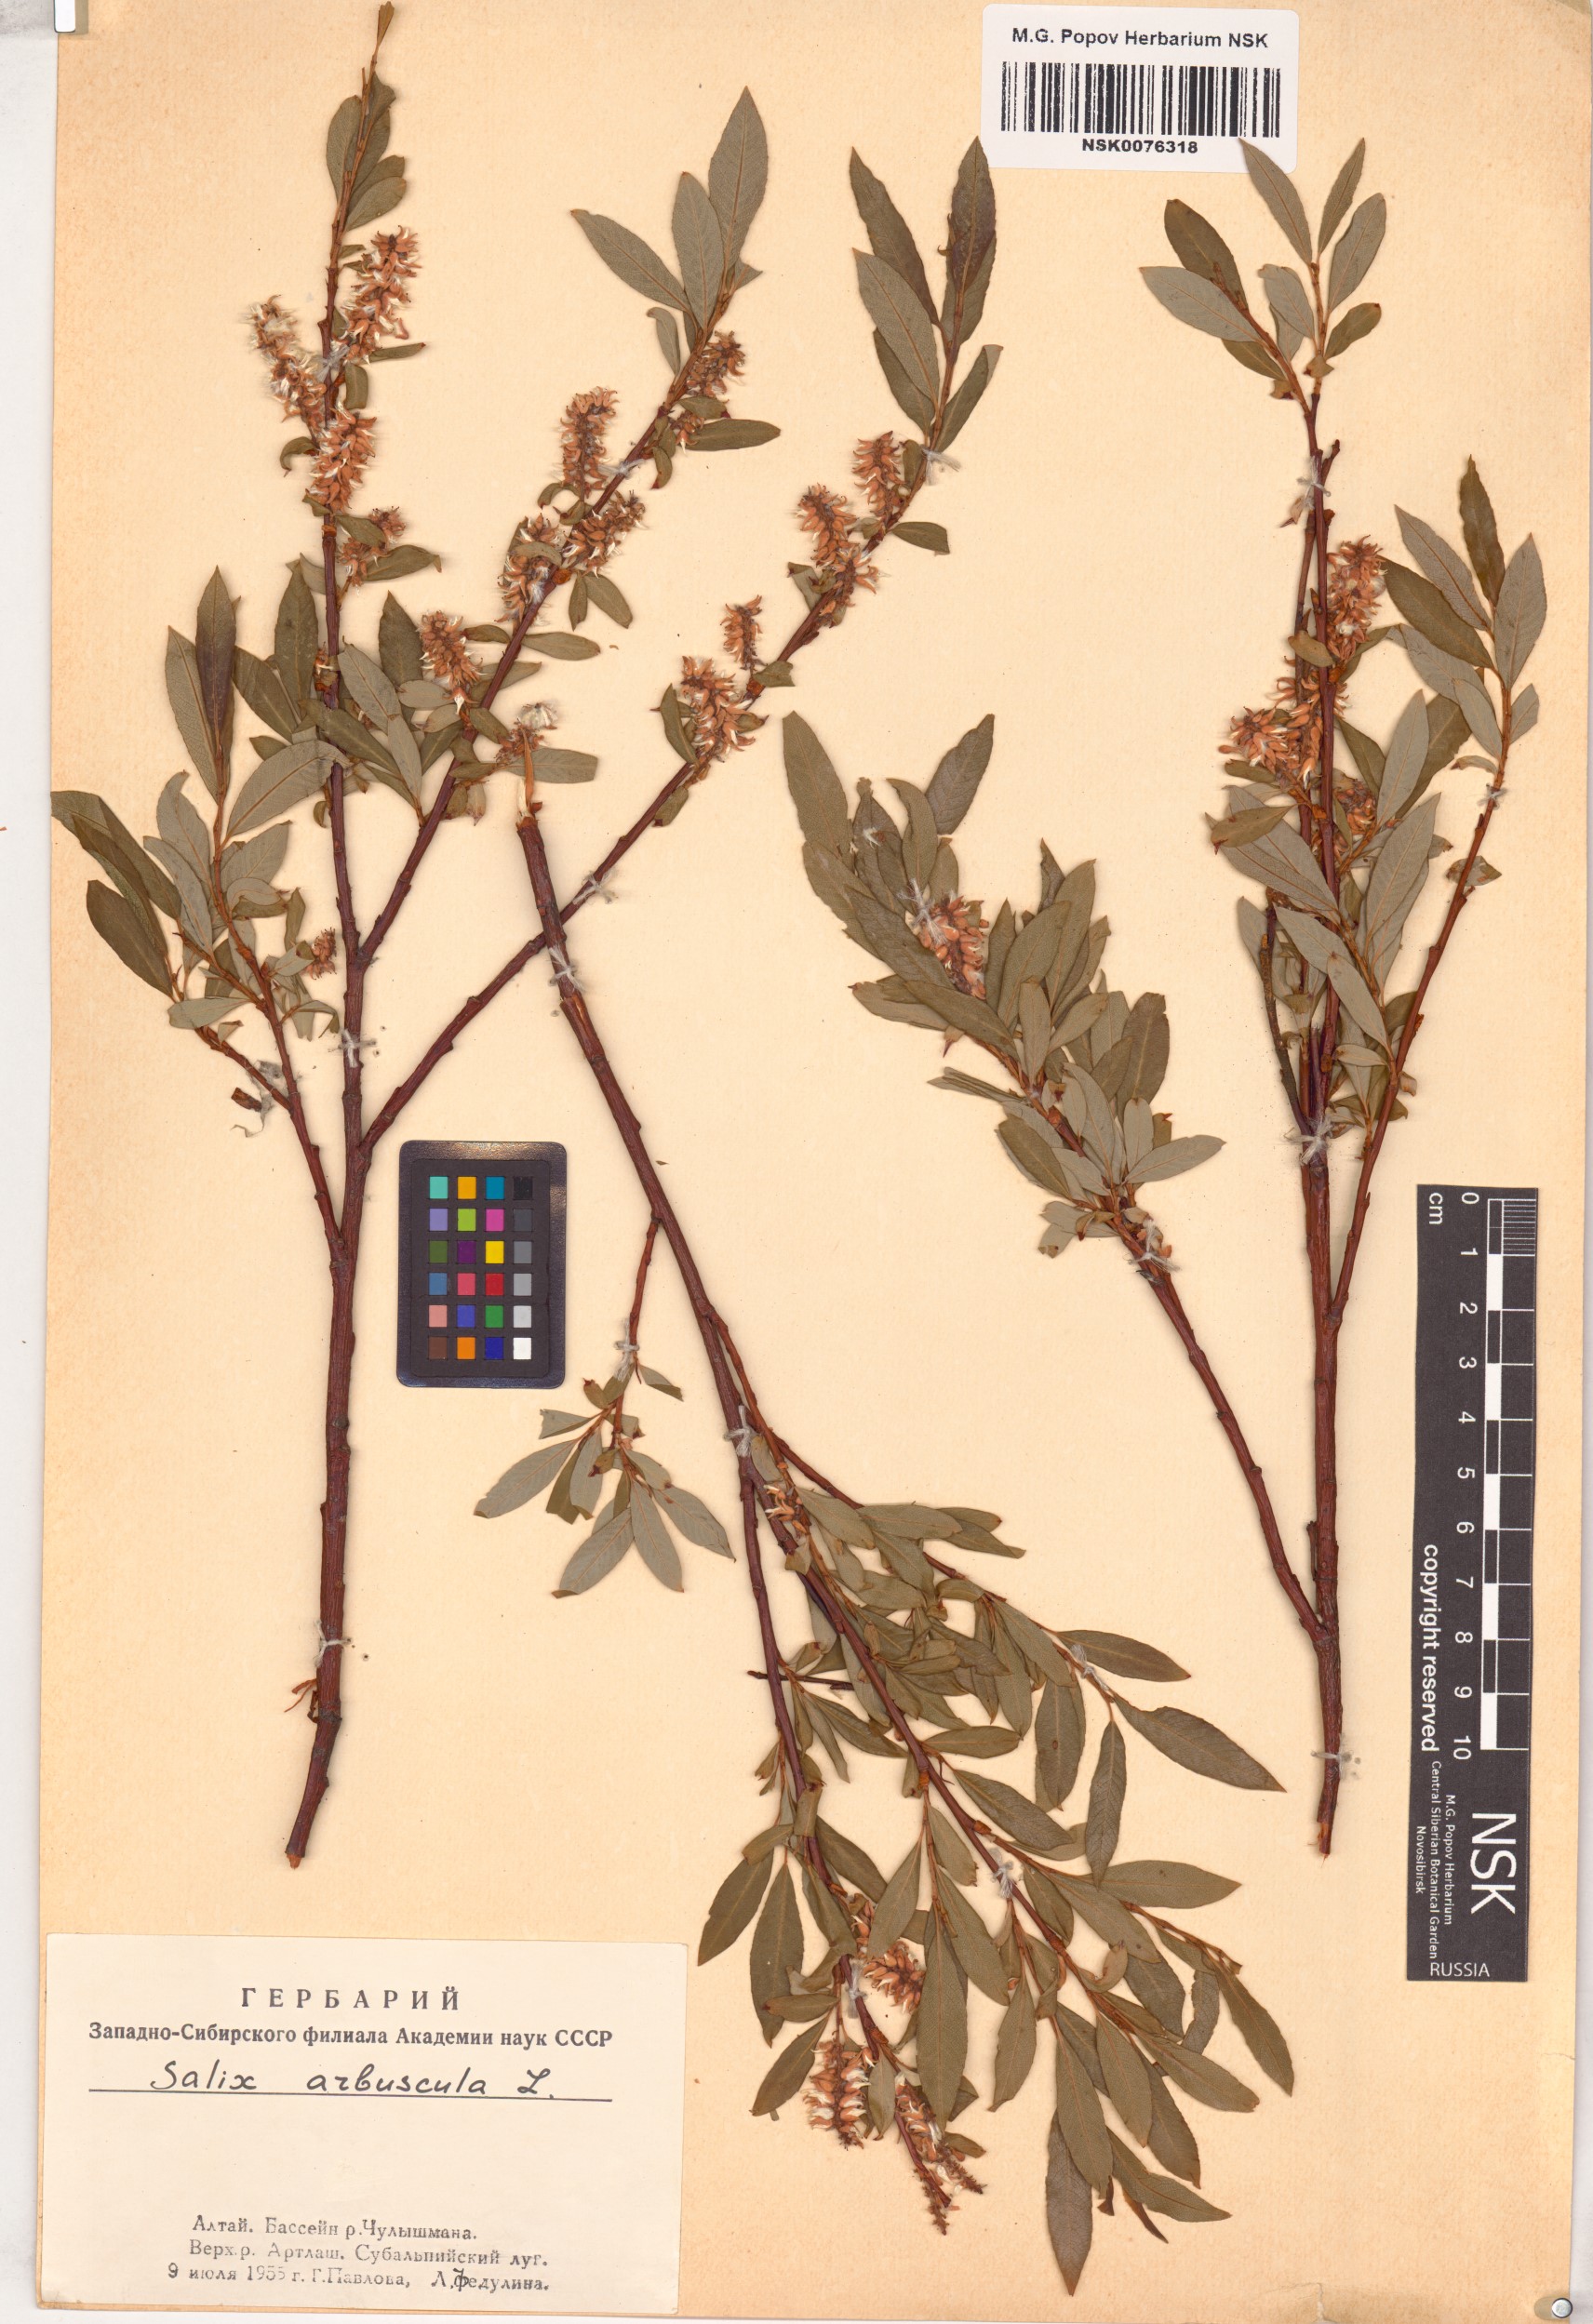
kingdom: Plantae
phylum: Tracheophyta
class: Magnoliopsida
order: Malpighiales
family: Salicaceae
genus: Salix
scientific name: Salix arbuscula
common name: Mountain willow
